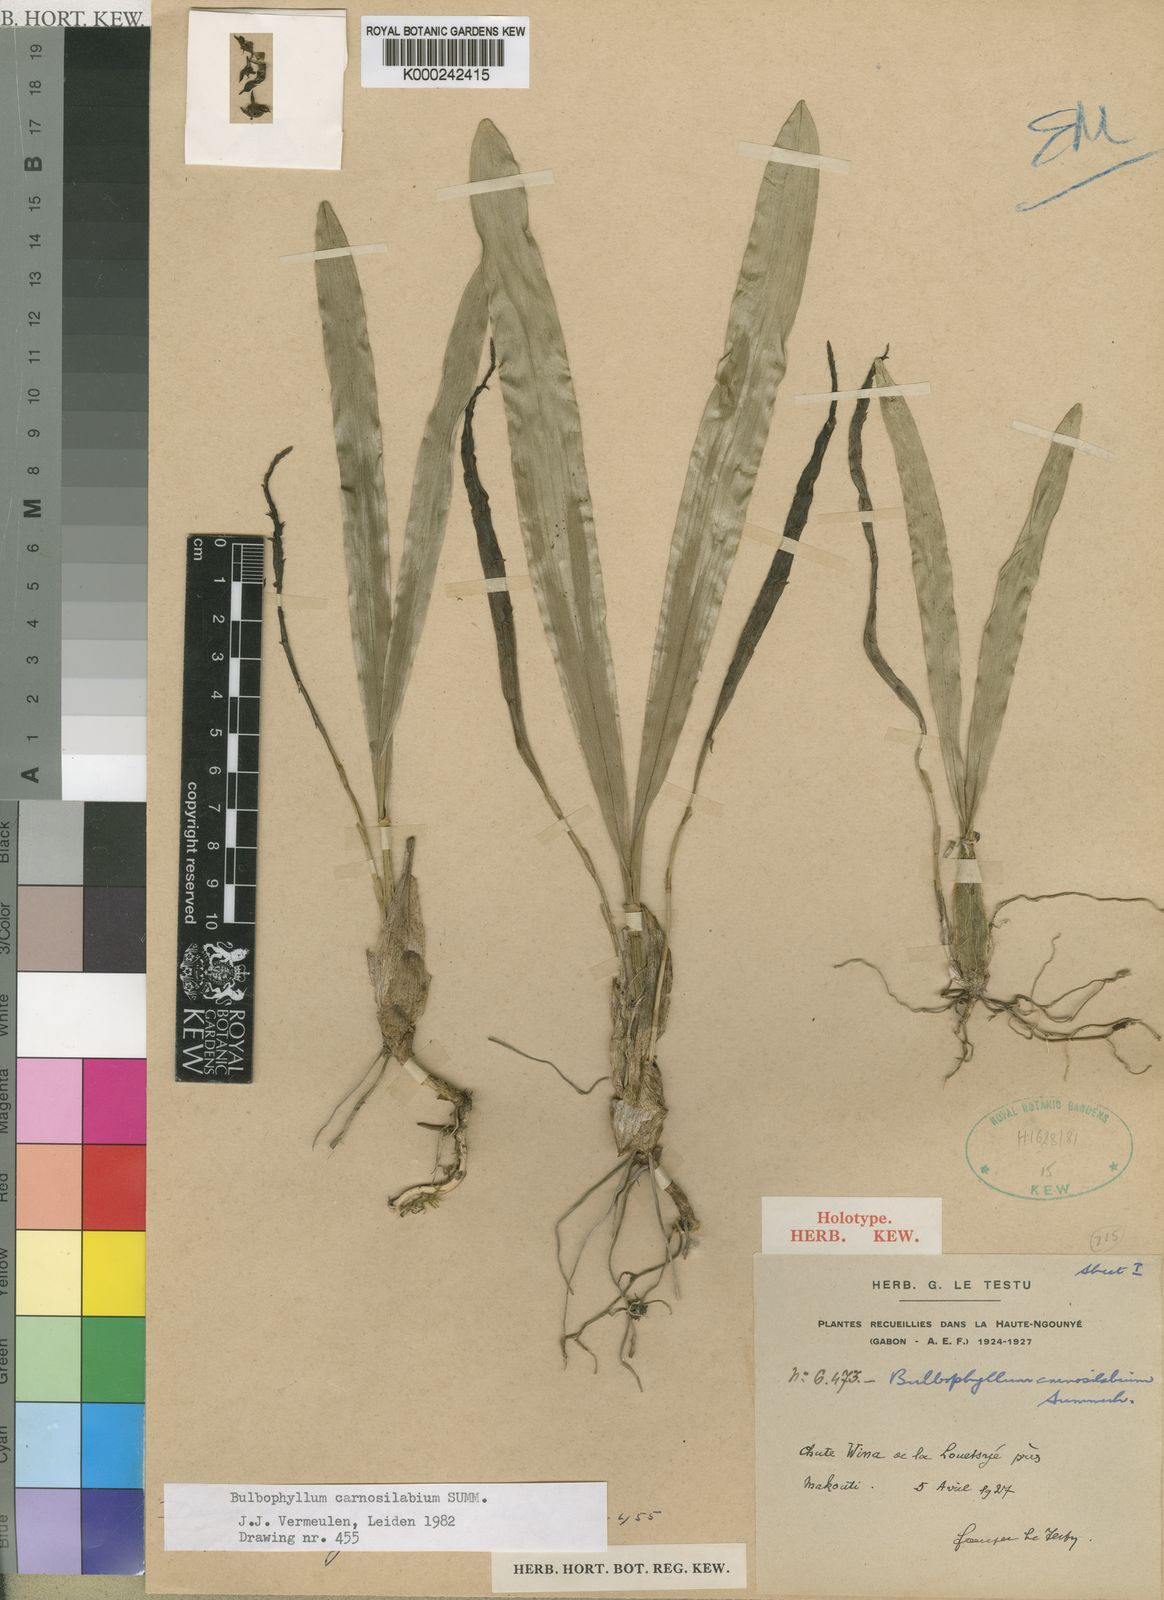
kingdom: Plantae
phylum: Tracheophyta
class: Liliopsida
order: Asparagales
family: Orchidaceae
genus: Bulbophyllum
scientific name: Bulbophyllum carnosilabium
